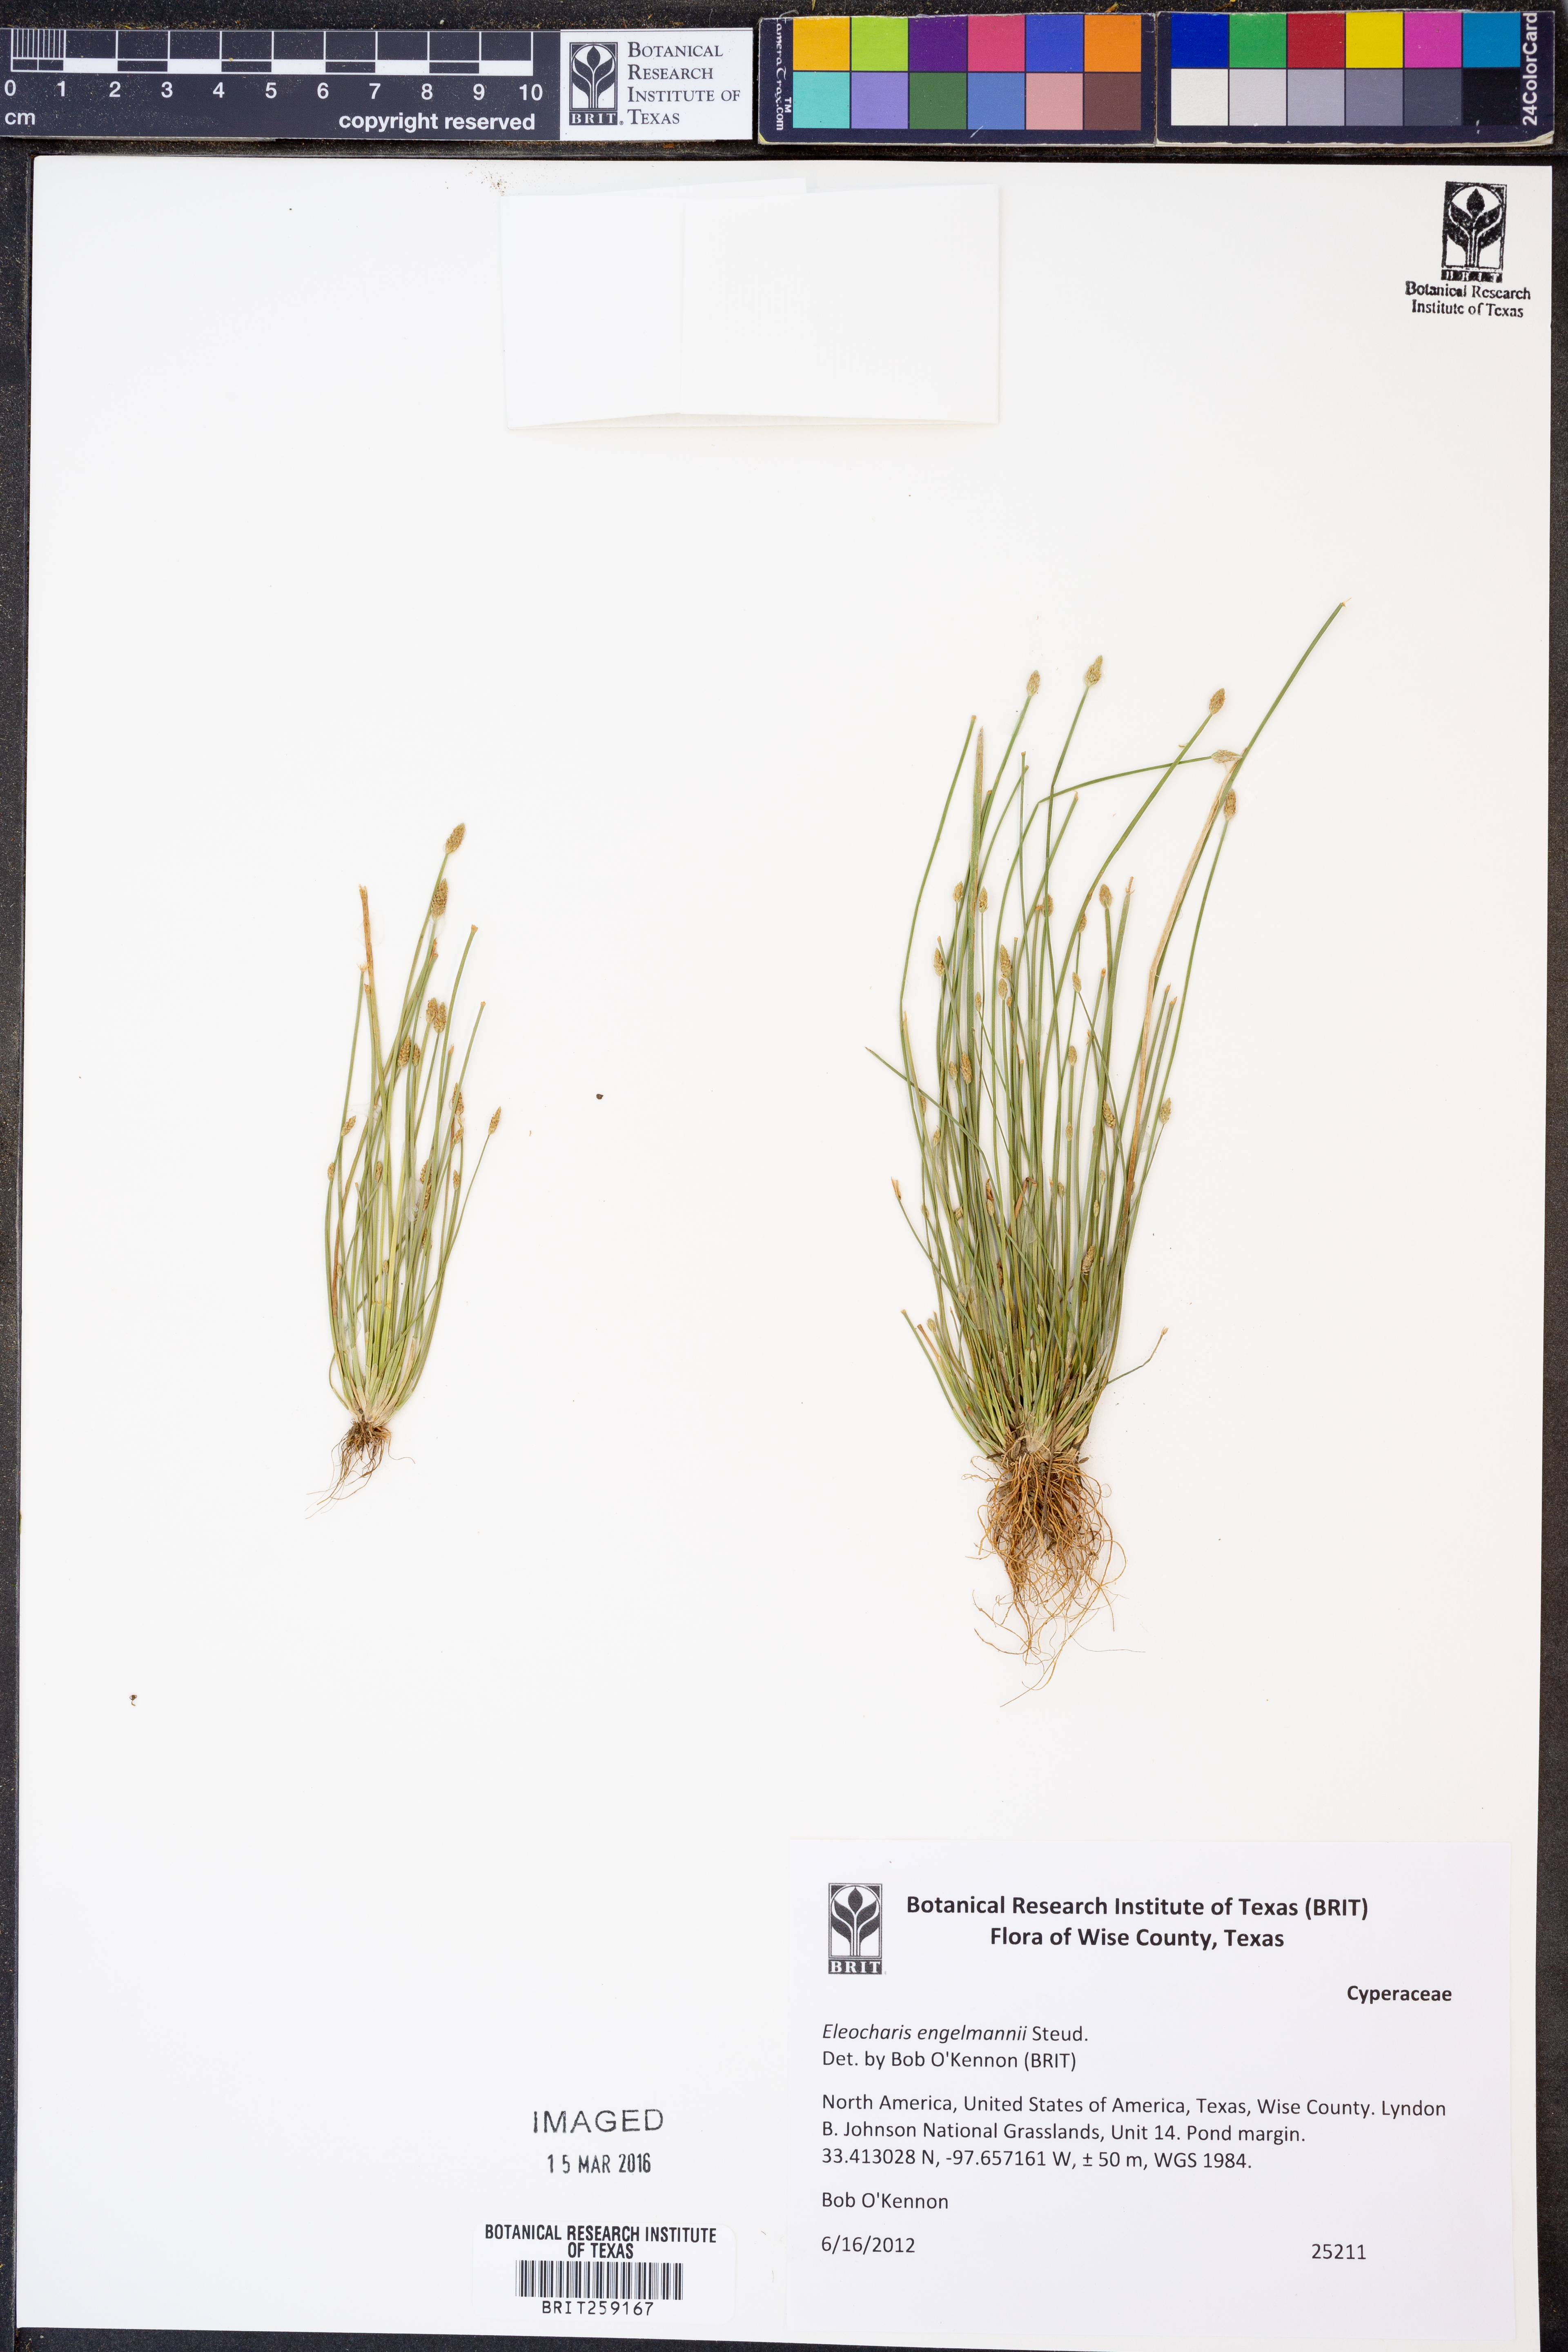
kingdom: Plantae
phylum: Tracheophyta
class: Liliopsida
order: Poales
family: Cyperaceae
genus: Eleocharis
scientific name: Eleocharis engelmannii
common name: Engelmann's spikerush
